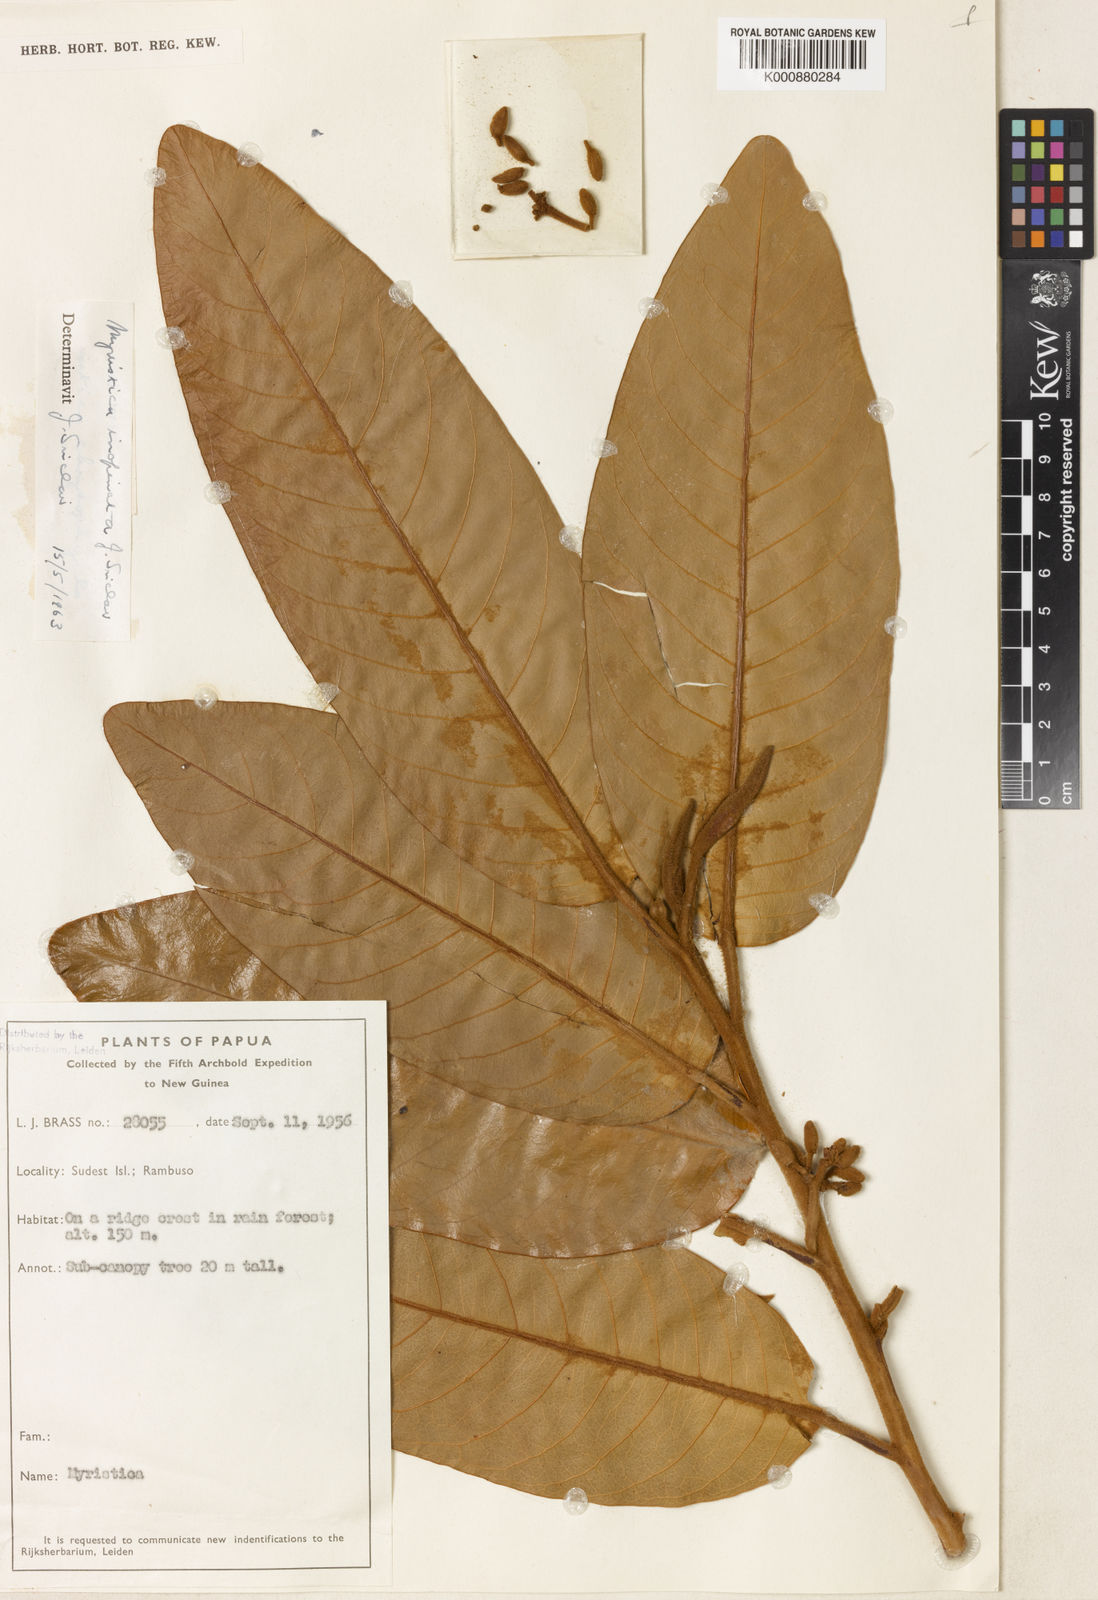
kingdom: Plantae
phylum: Tracheophyta
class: Magnoliopsida
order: Magnoliales
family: Myristicaceae
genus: Myristica
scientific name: Myristica inopinata
